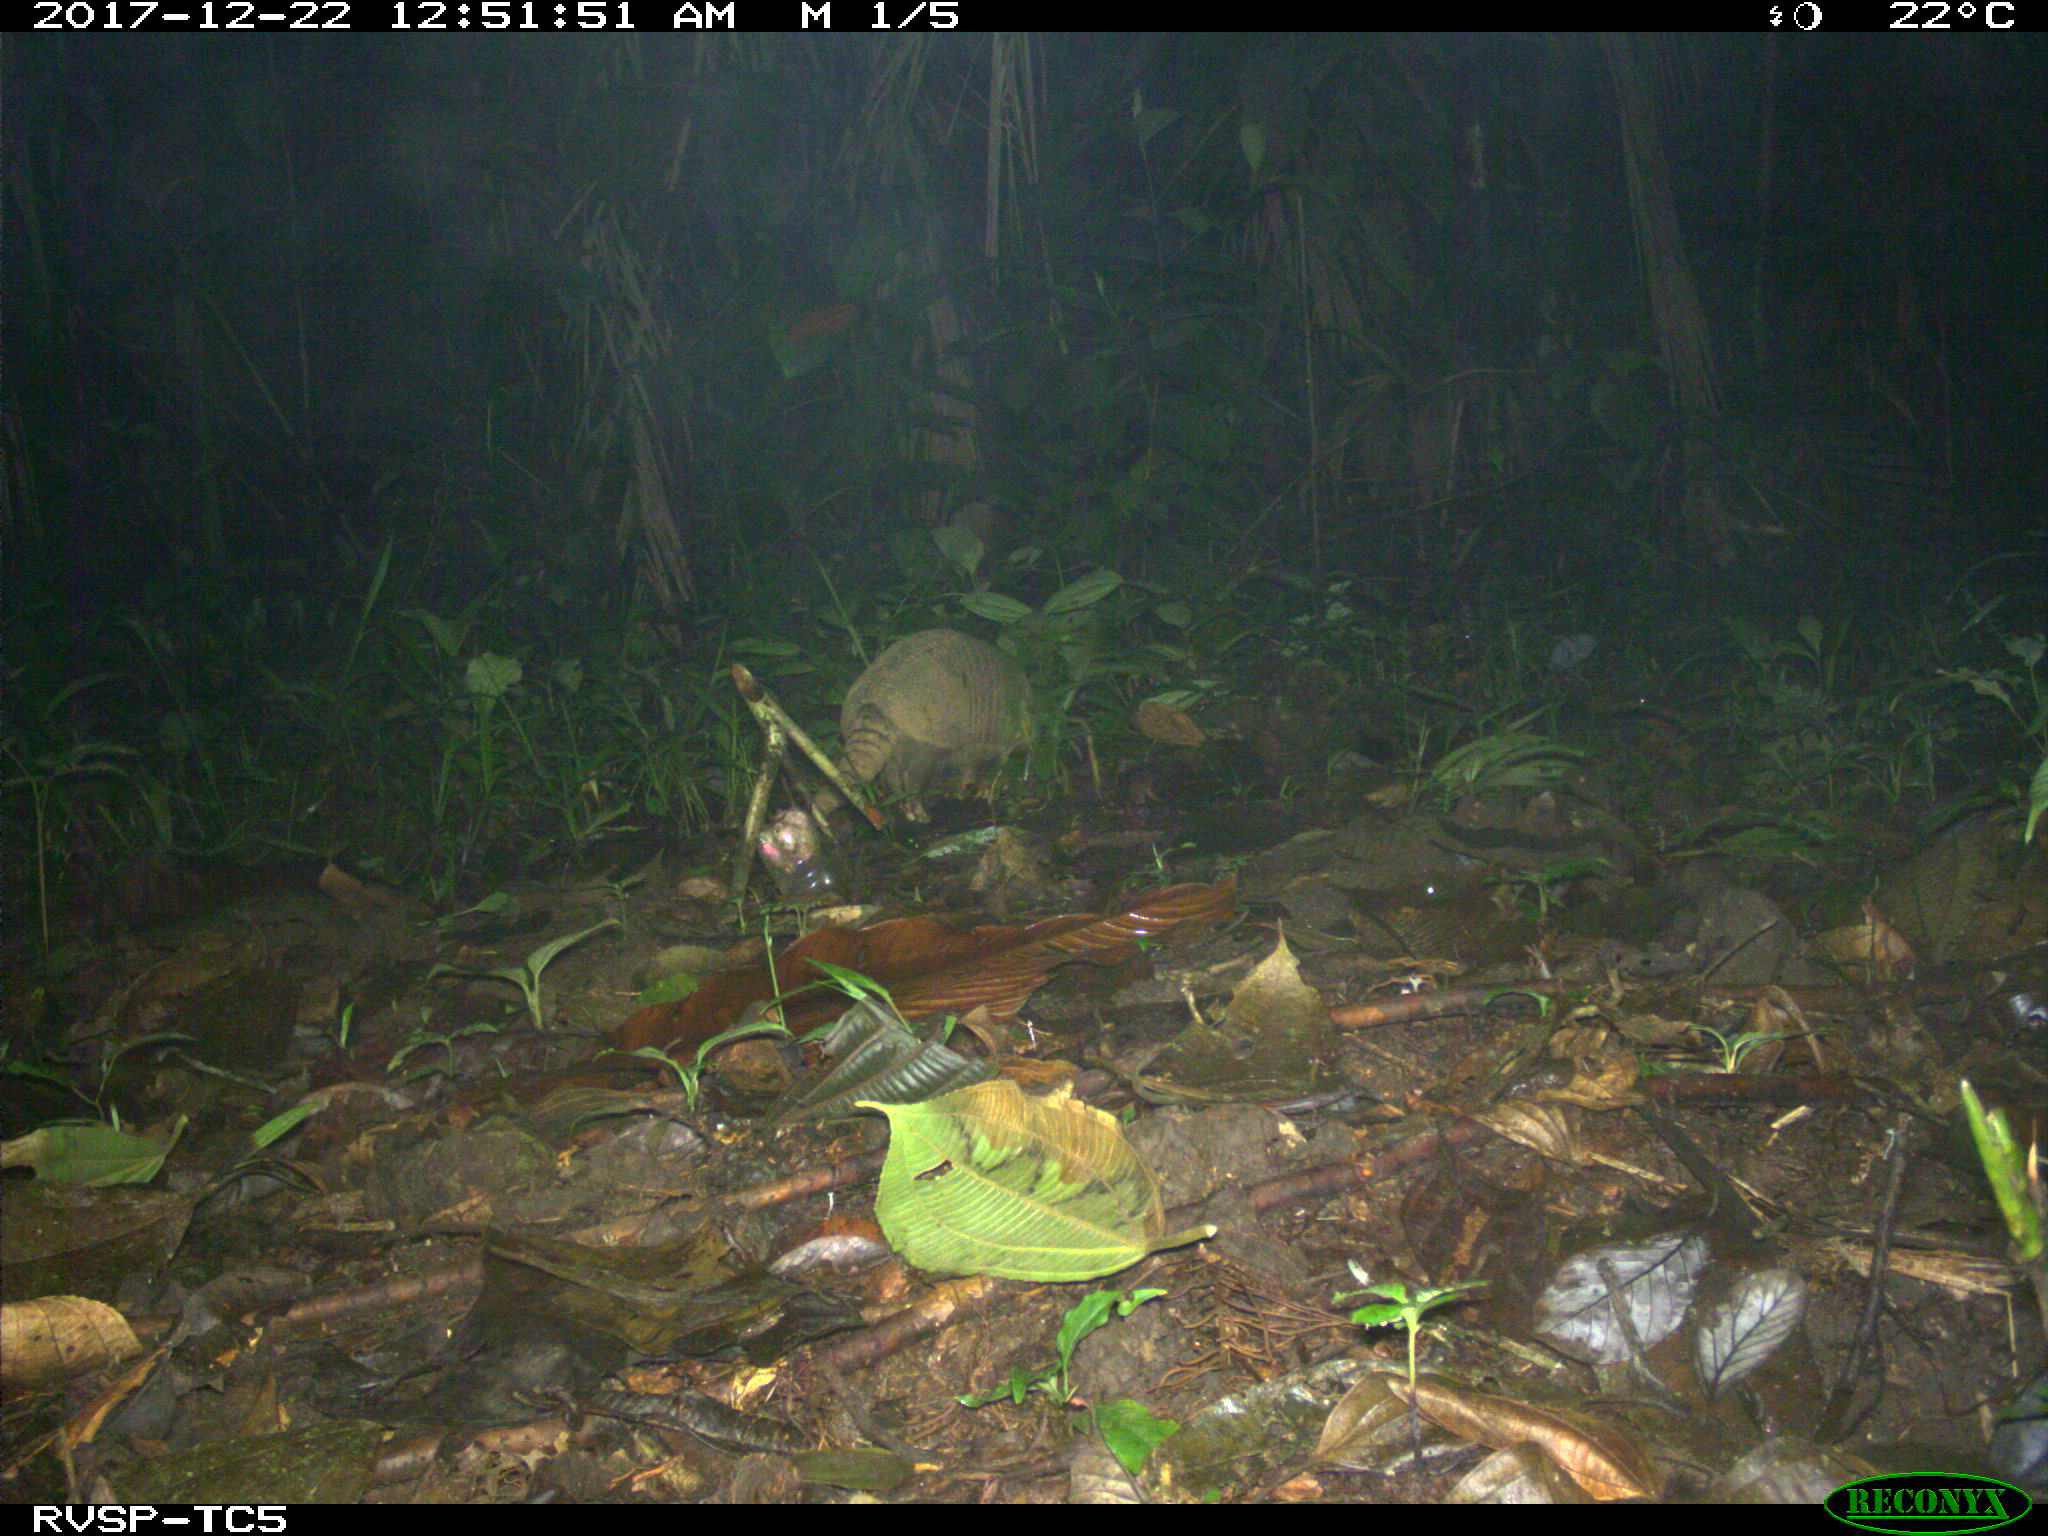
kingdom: Animalia
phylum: Chordata
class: Mammalia
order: Cingulata
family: Dasypodidae
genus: Dasypus
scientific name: Dasypus novemcinctus
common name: Nine-banded armadillo
